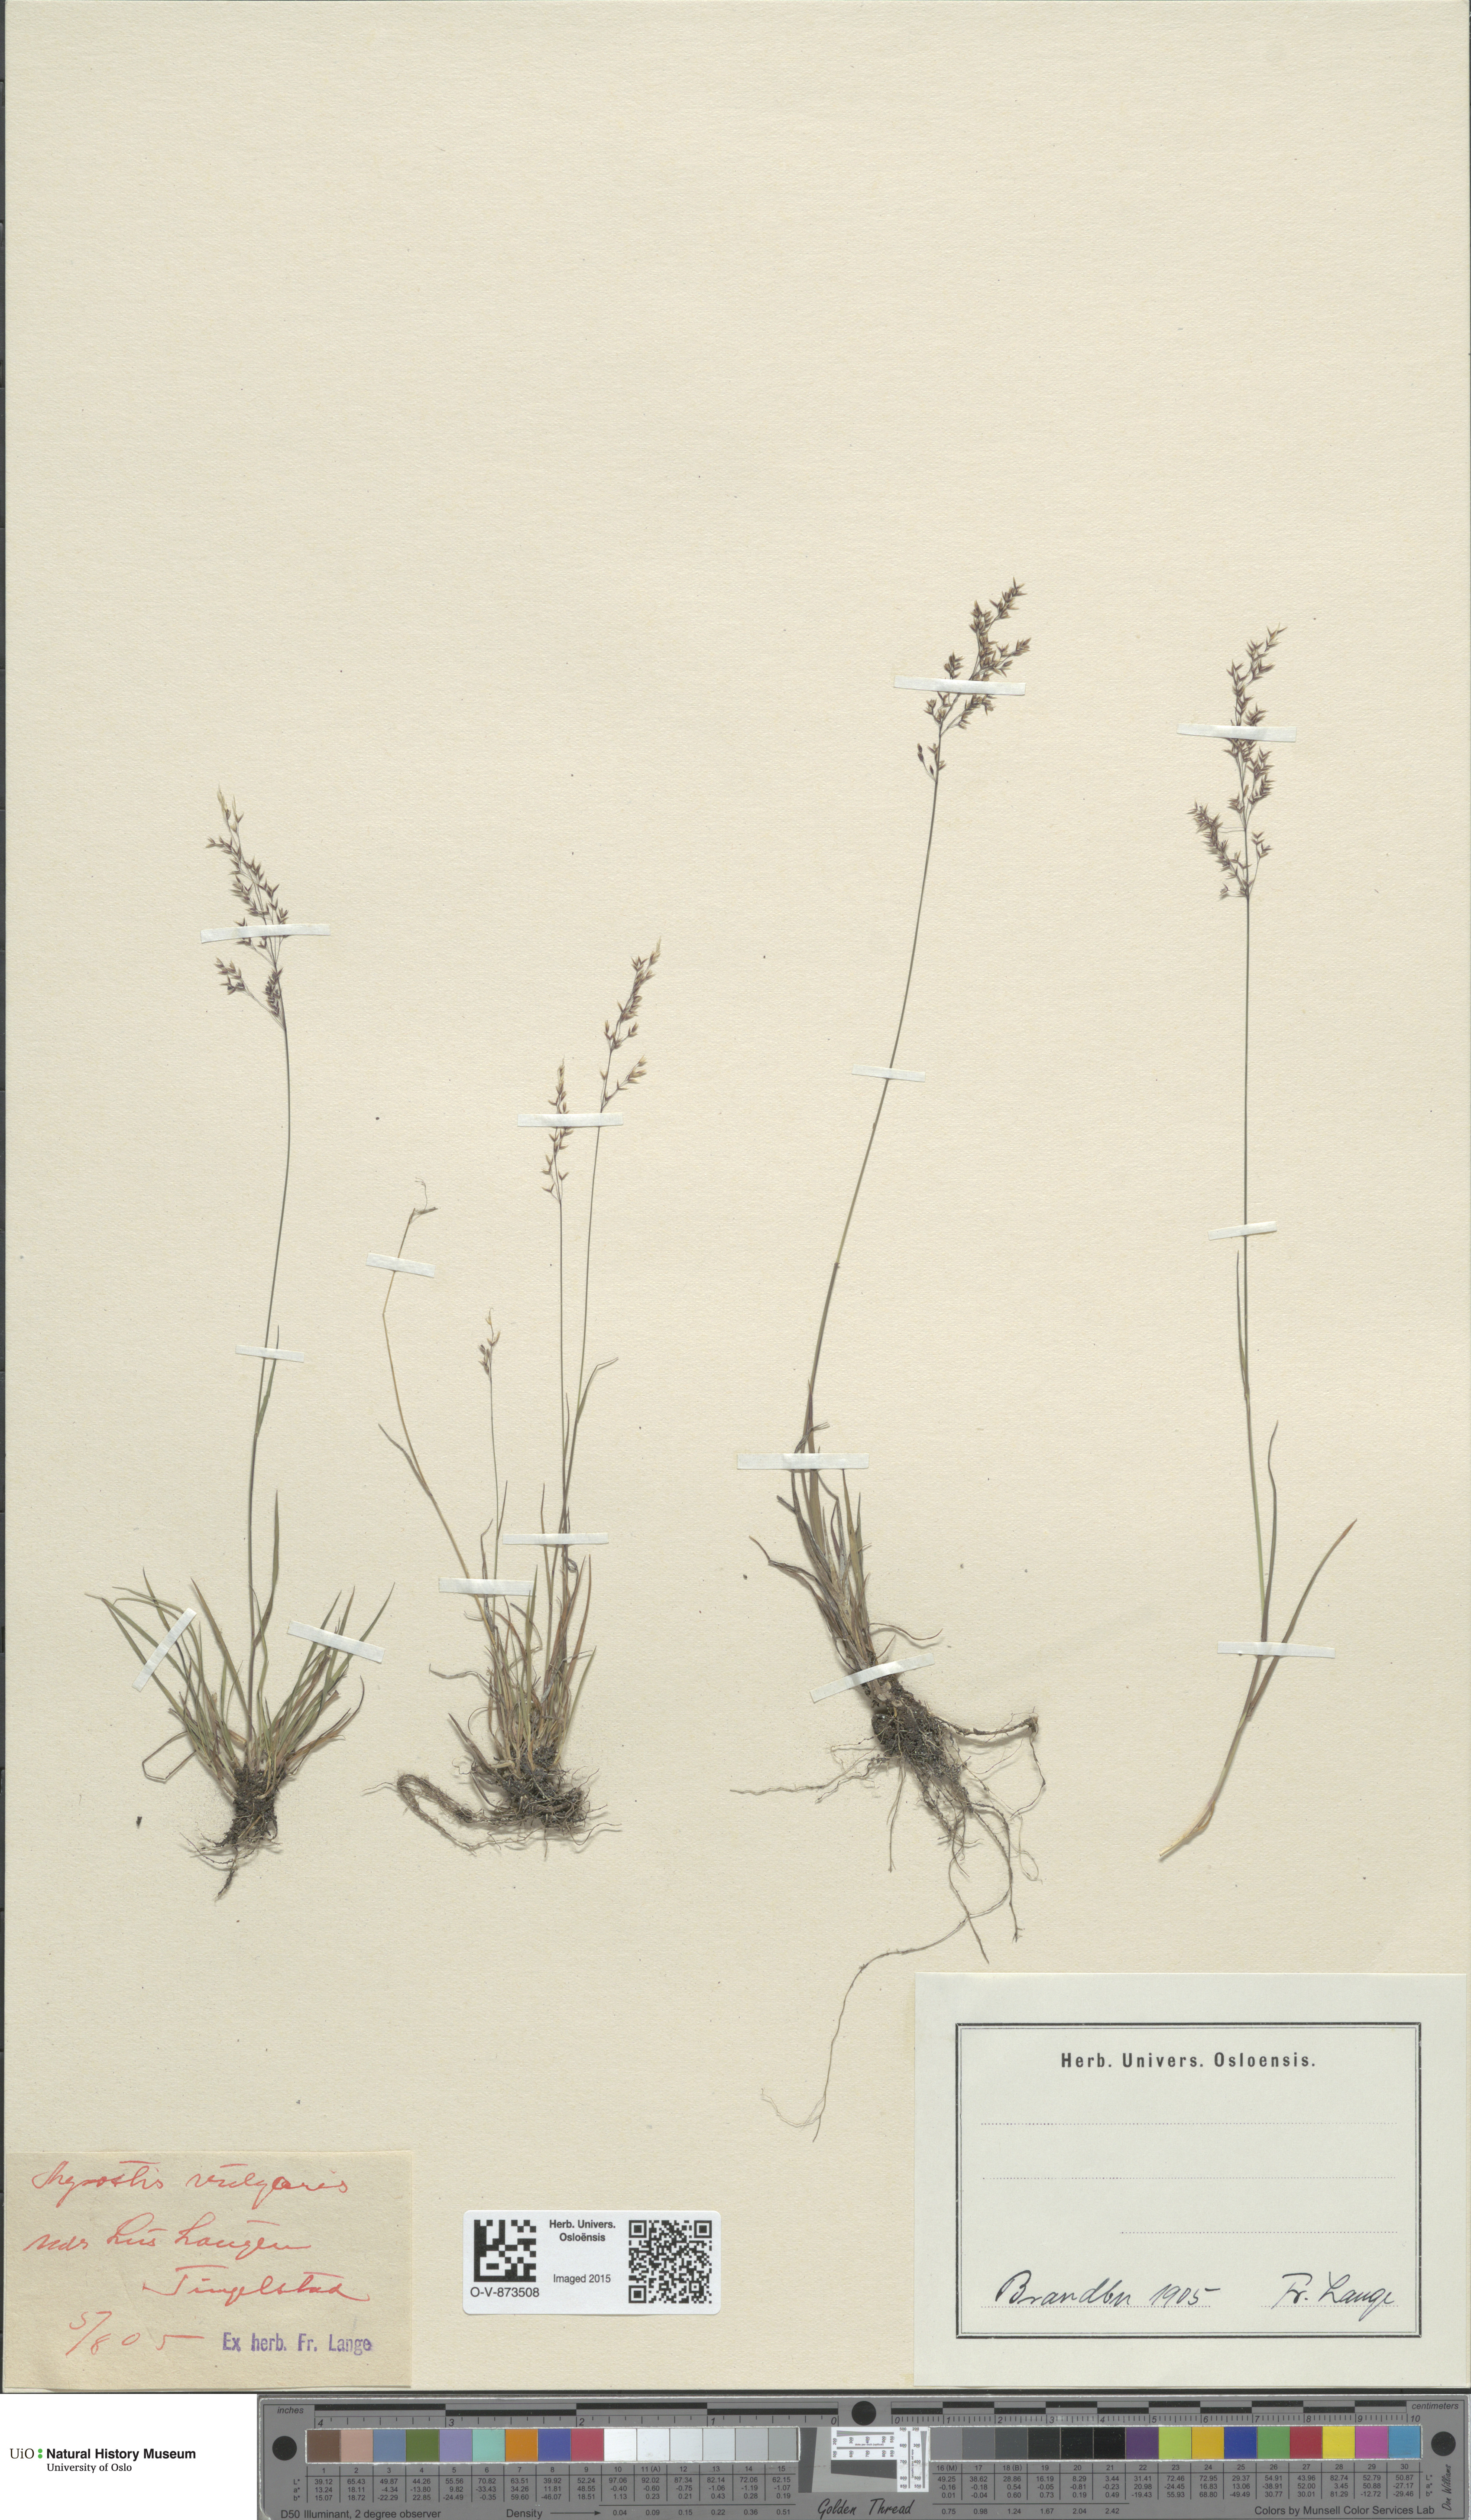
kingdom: Plantae
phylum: Tracheophyta
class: Liliopsida
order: Poales
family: Poaceae
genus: Agrostis
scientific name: Agrostis capillaris
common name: Colonial bentgrass
